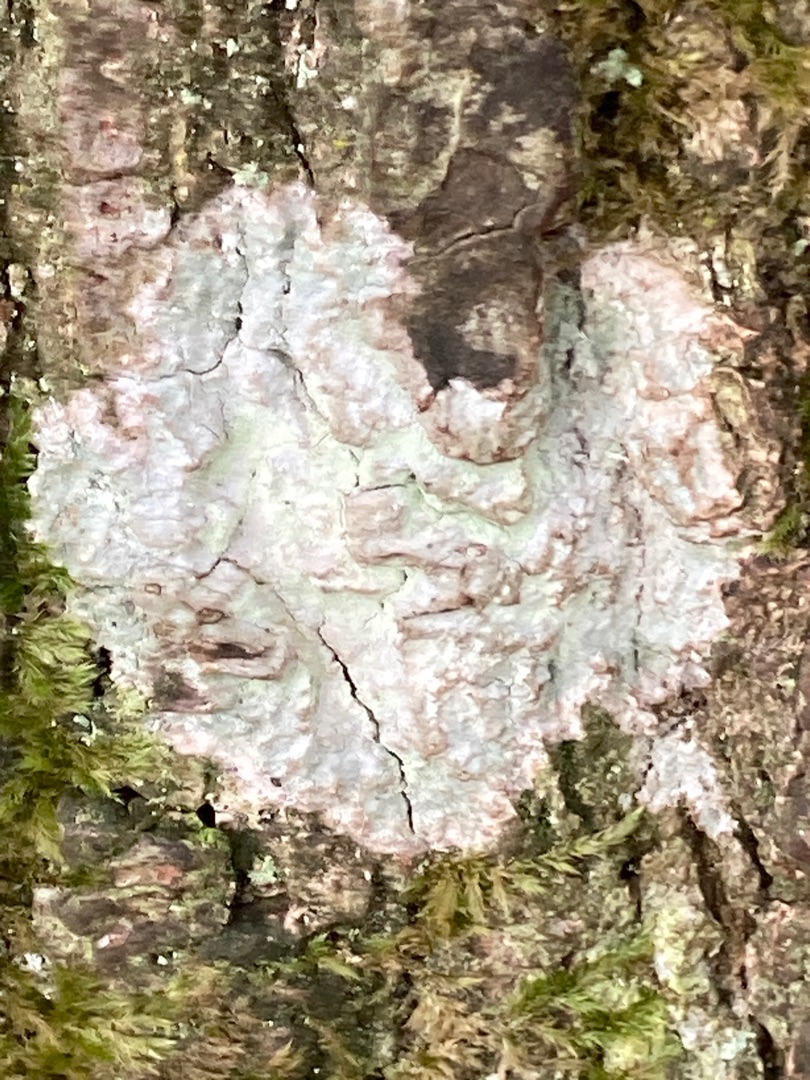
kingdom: Fungi
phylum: Ascomycota
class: Lecanoromycetes
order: Ostropales
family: Phlyctidaceae
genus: Phlyctis
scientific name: Phlyctis argena
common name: Almindelig sølvlav
